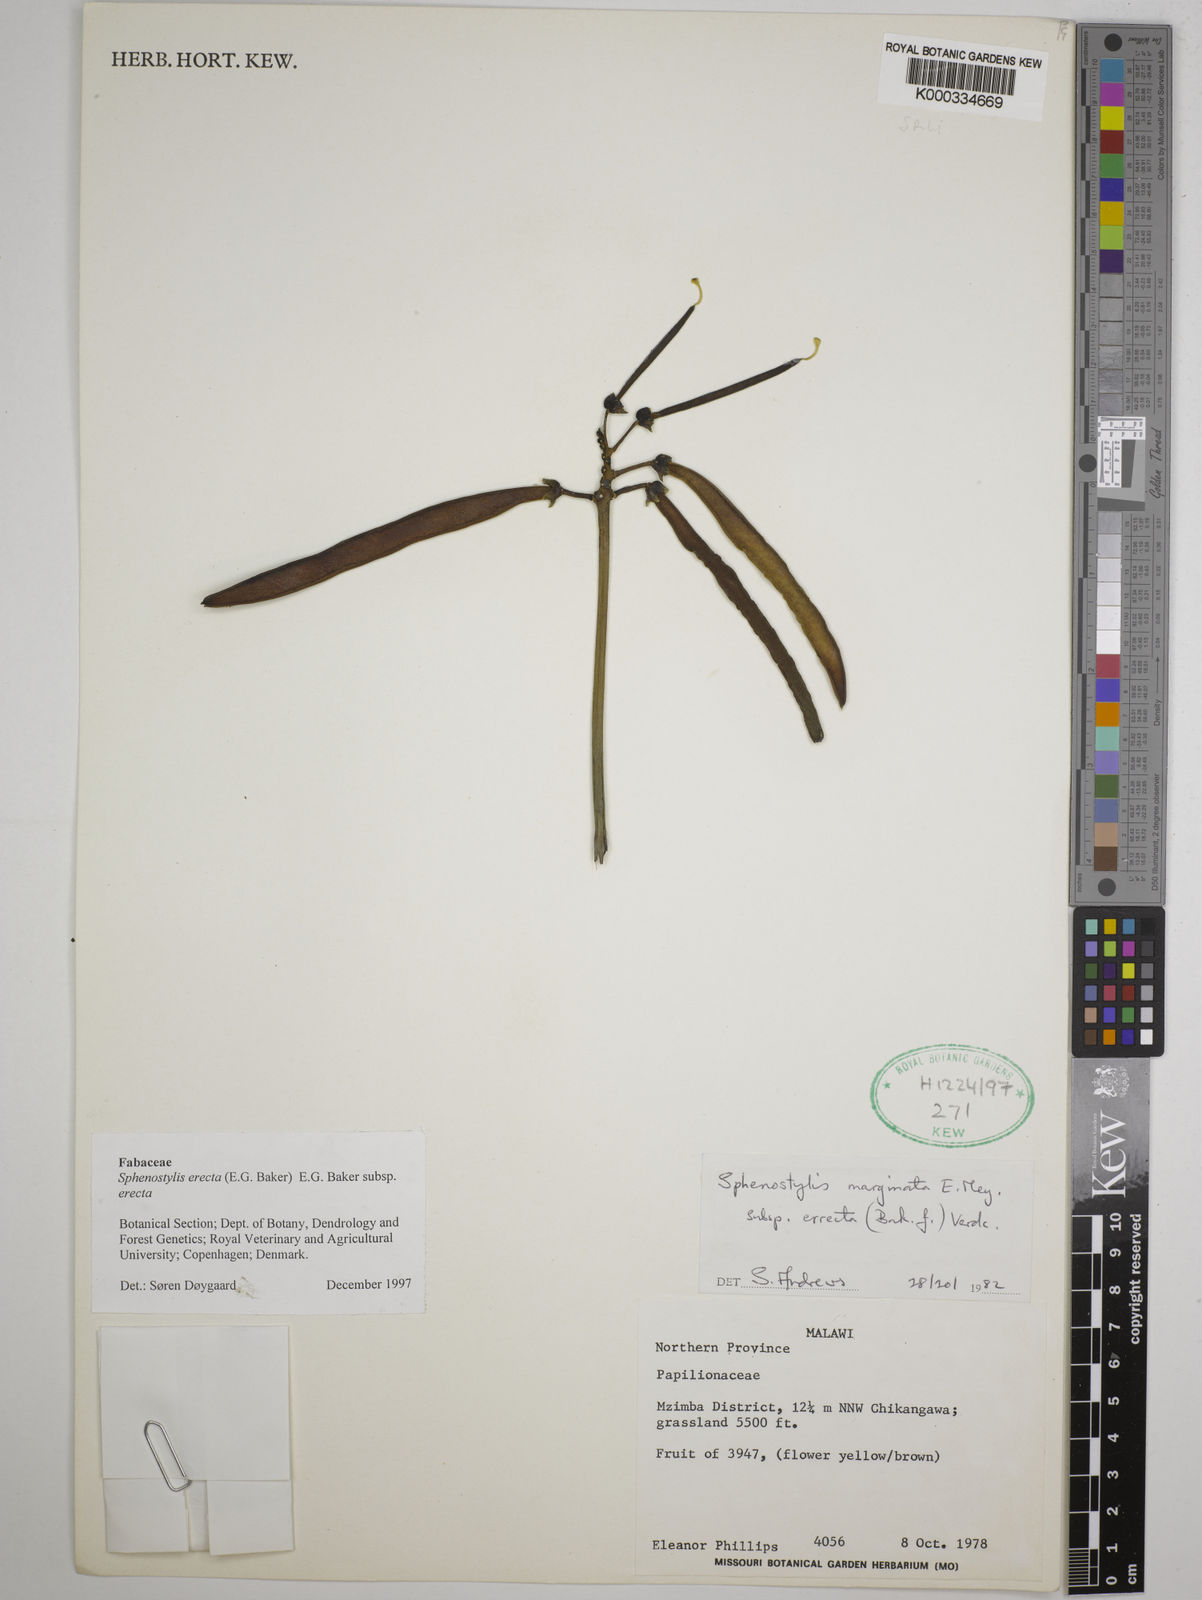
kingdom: Plantae
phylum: Tracheophyta
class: Magnoliopsida
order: Fabales
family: Fabaceae
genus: Sphenostylis
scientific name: Sphenostylis erecta
